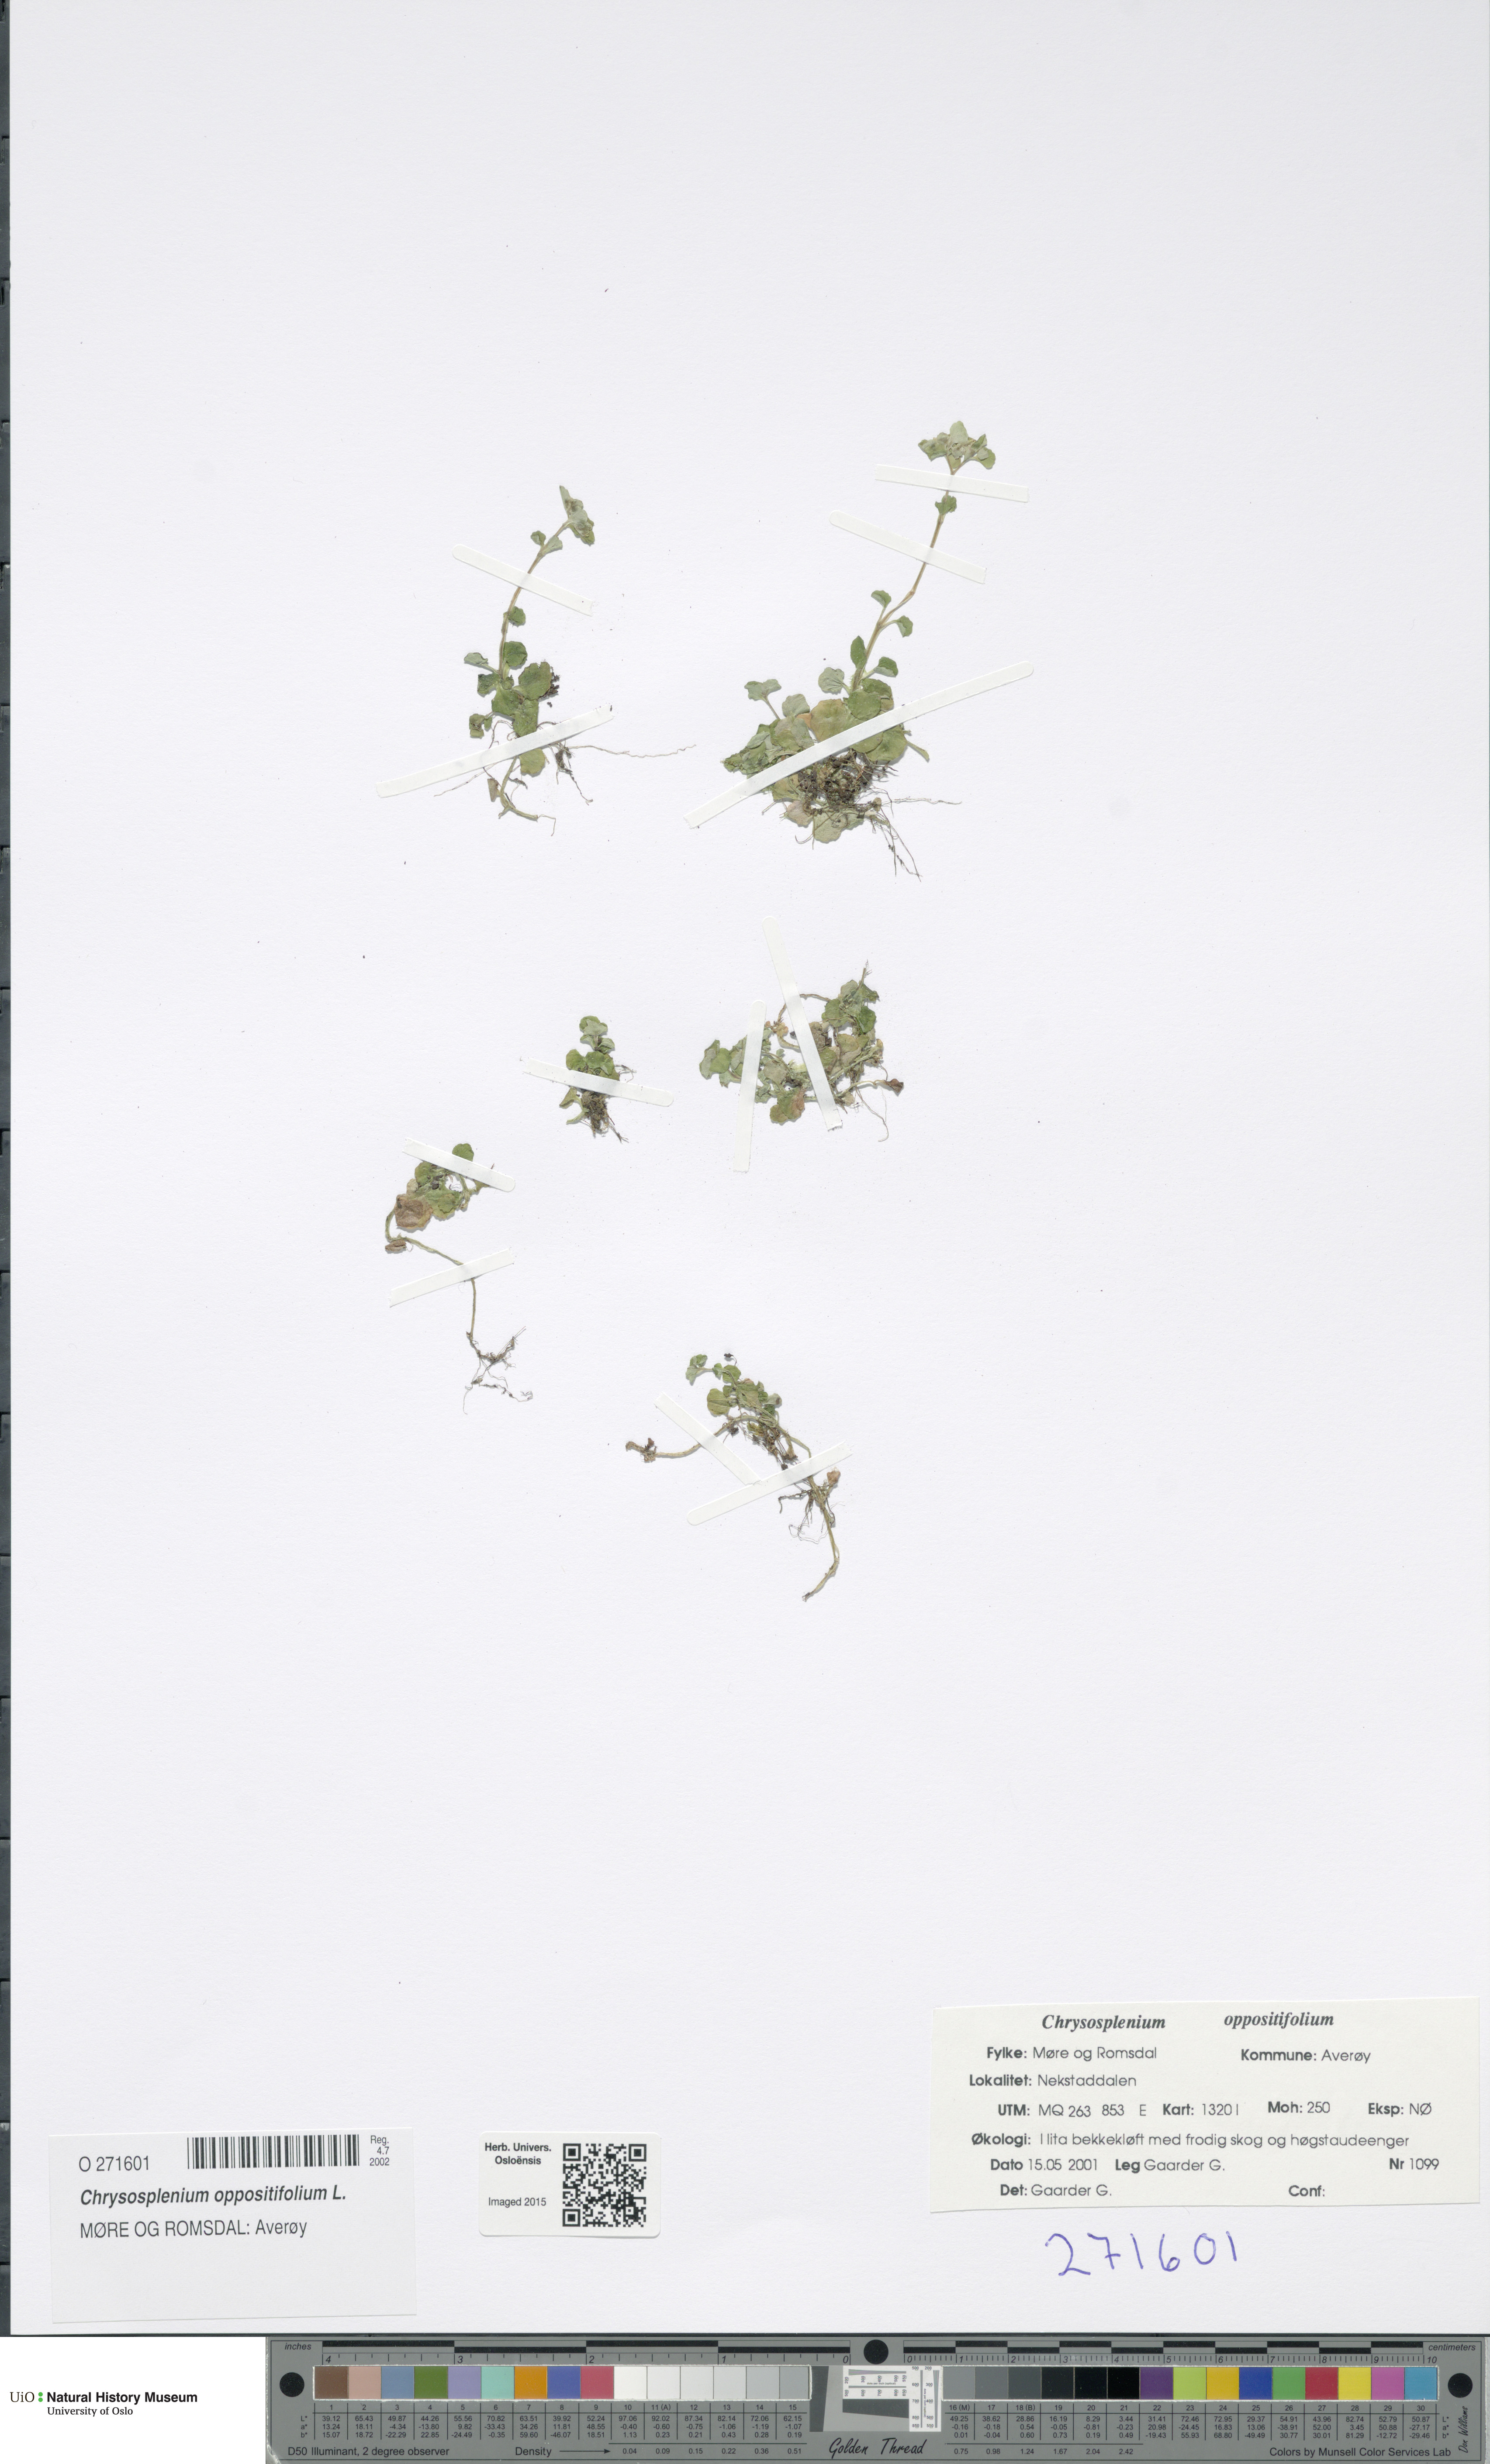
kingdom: Plantae
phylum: Tracheophyta
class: Magnoliopsida
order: Saxifragales
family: Saxifragaceae
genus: Chrysosplenium
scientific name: Chrysosplenium oppositifolium
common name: Opposite-leaved golden-saxifrage
